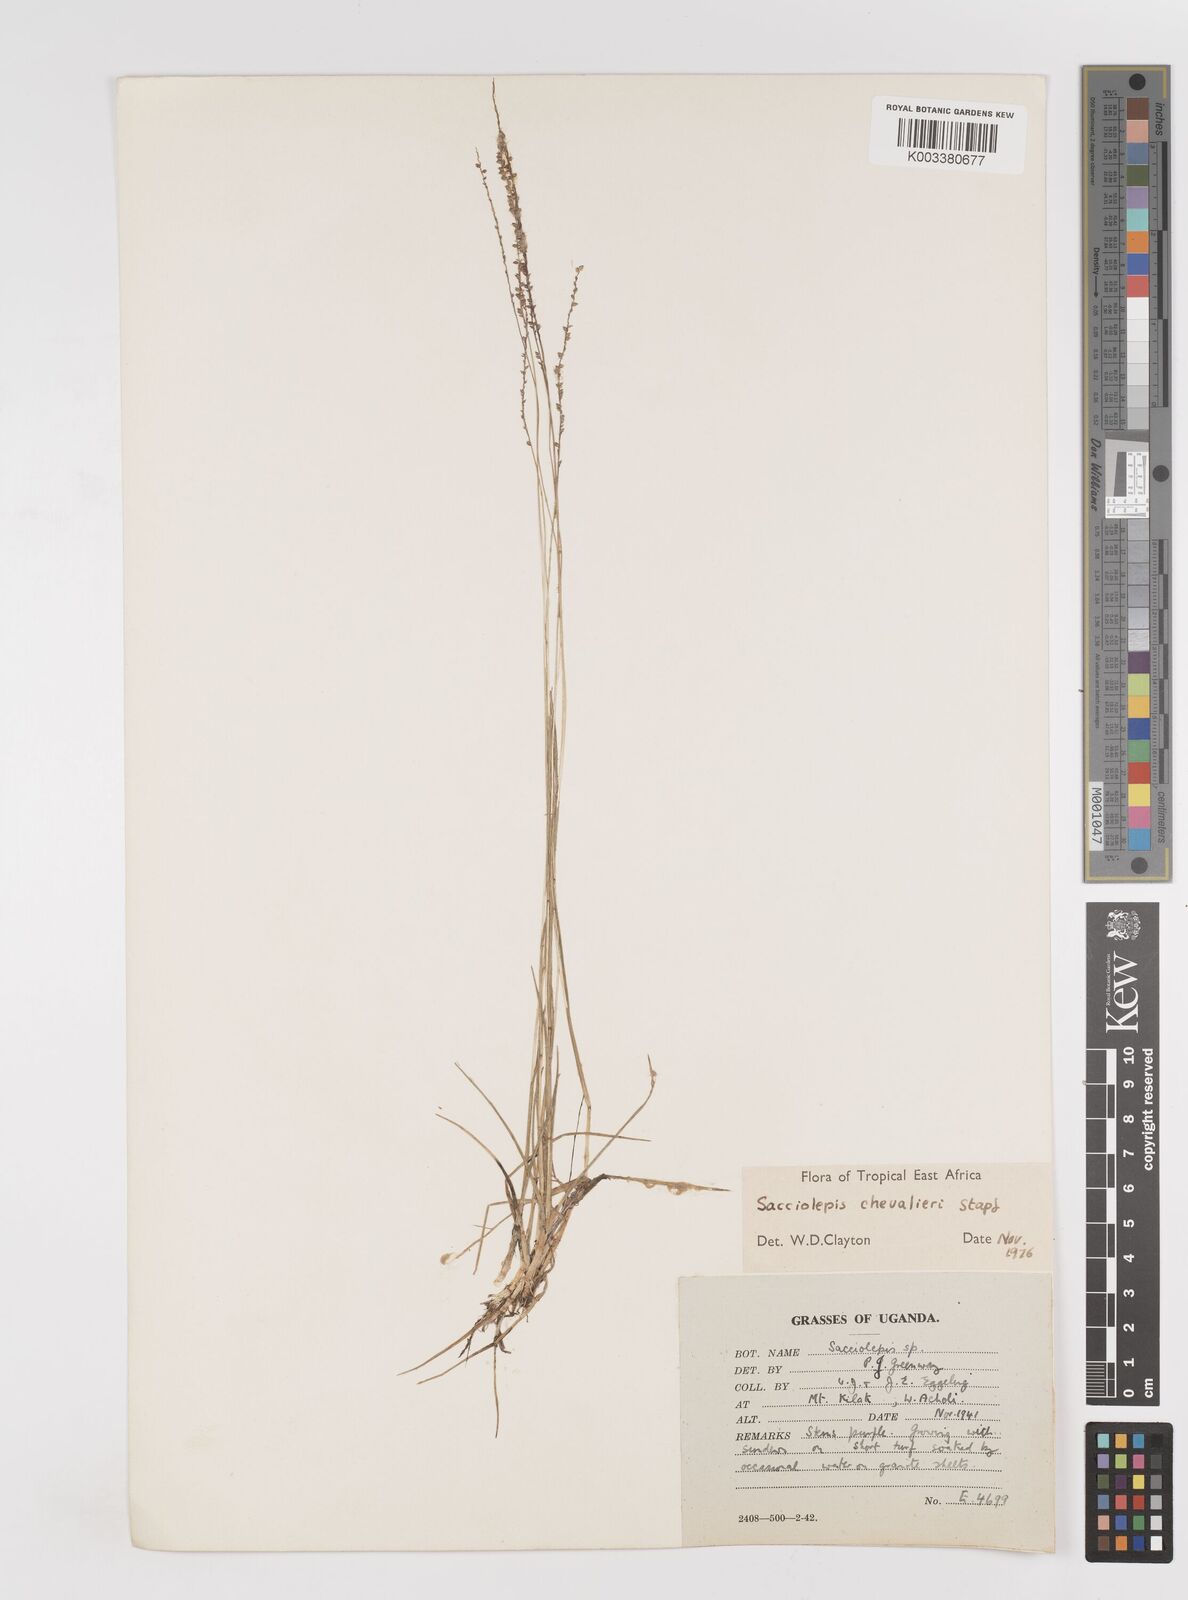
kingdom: Plantae
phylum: Tracheophyta
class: Liliopsida
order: Poales
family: Poaceae
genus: Sacciolepis
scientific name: Sacciolepis chevalieri
